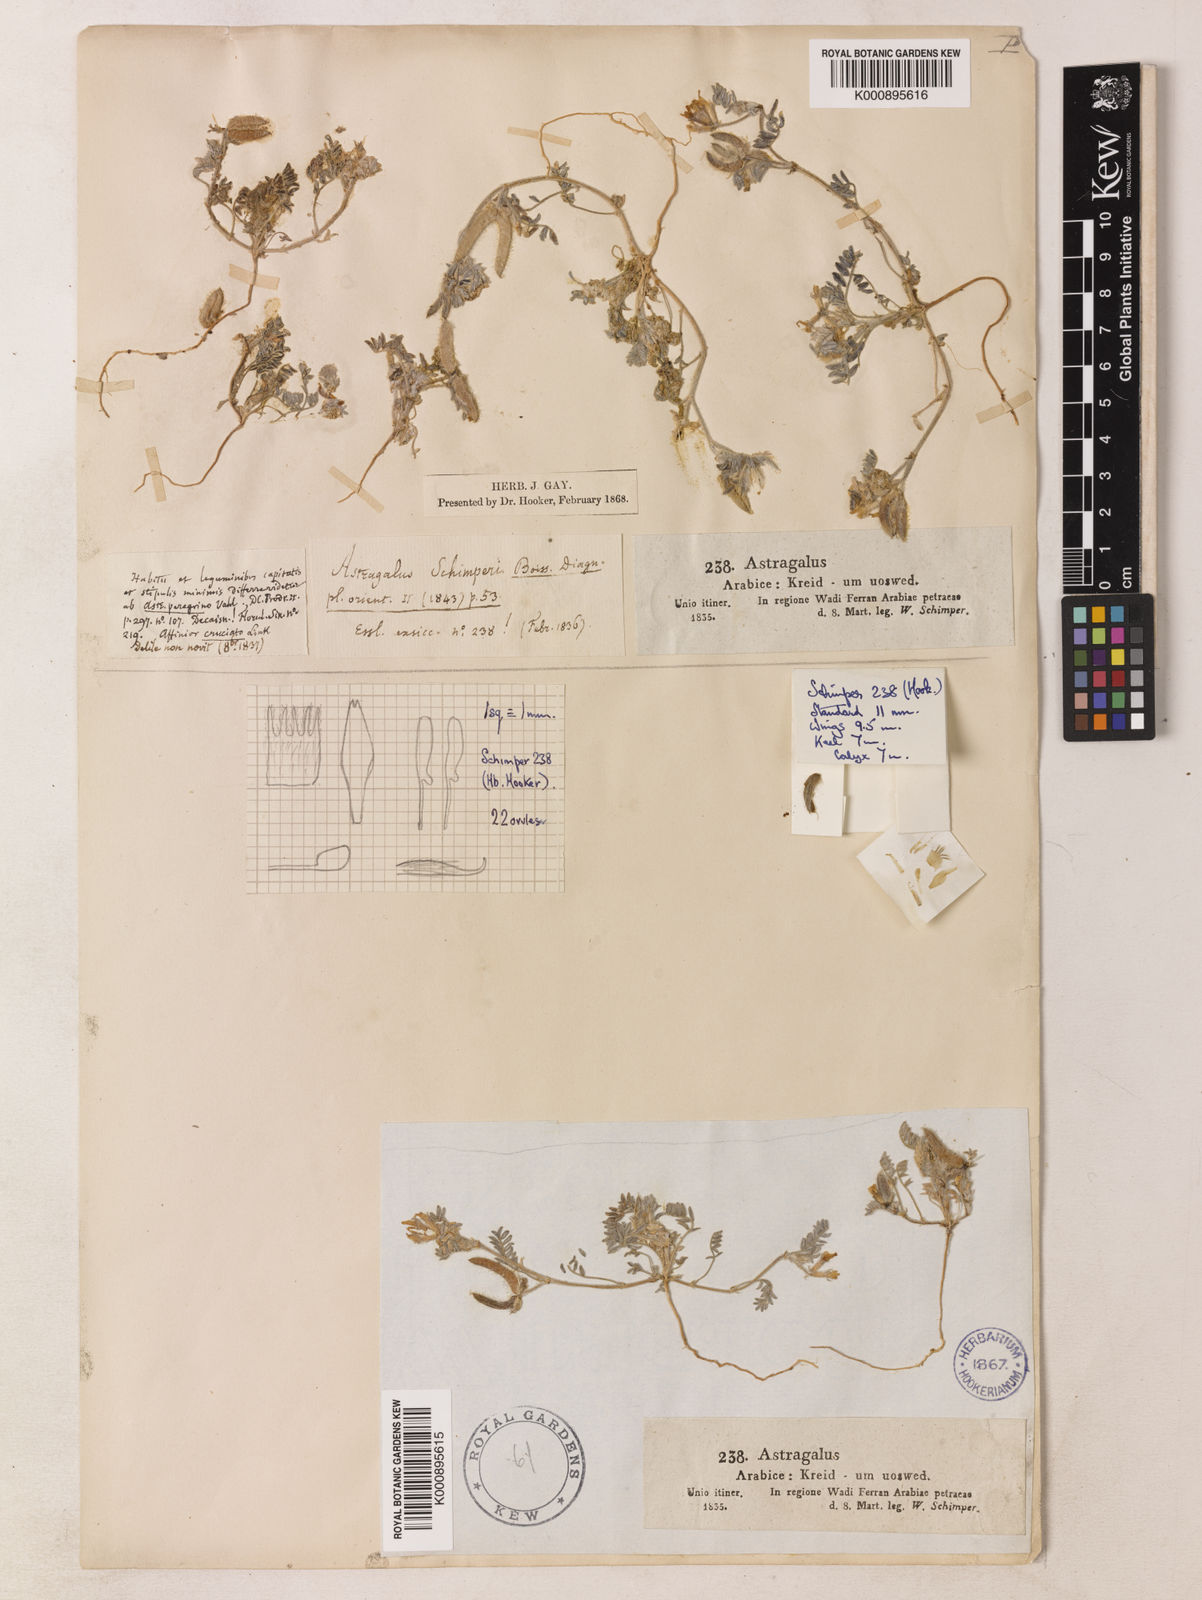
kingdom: Plantae
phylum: Tracheophyta
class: Magnoliopsida
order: Fabales
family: Fabaceae
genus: Astragalus
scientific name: Astragalus schimperi
